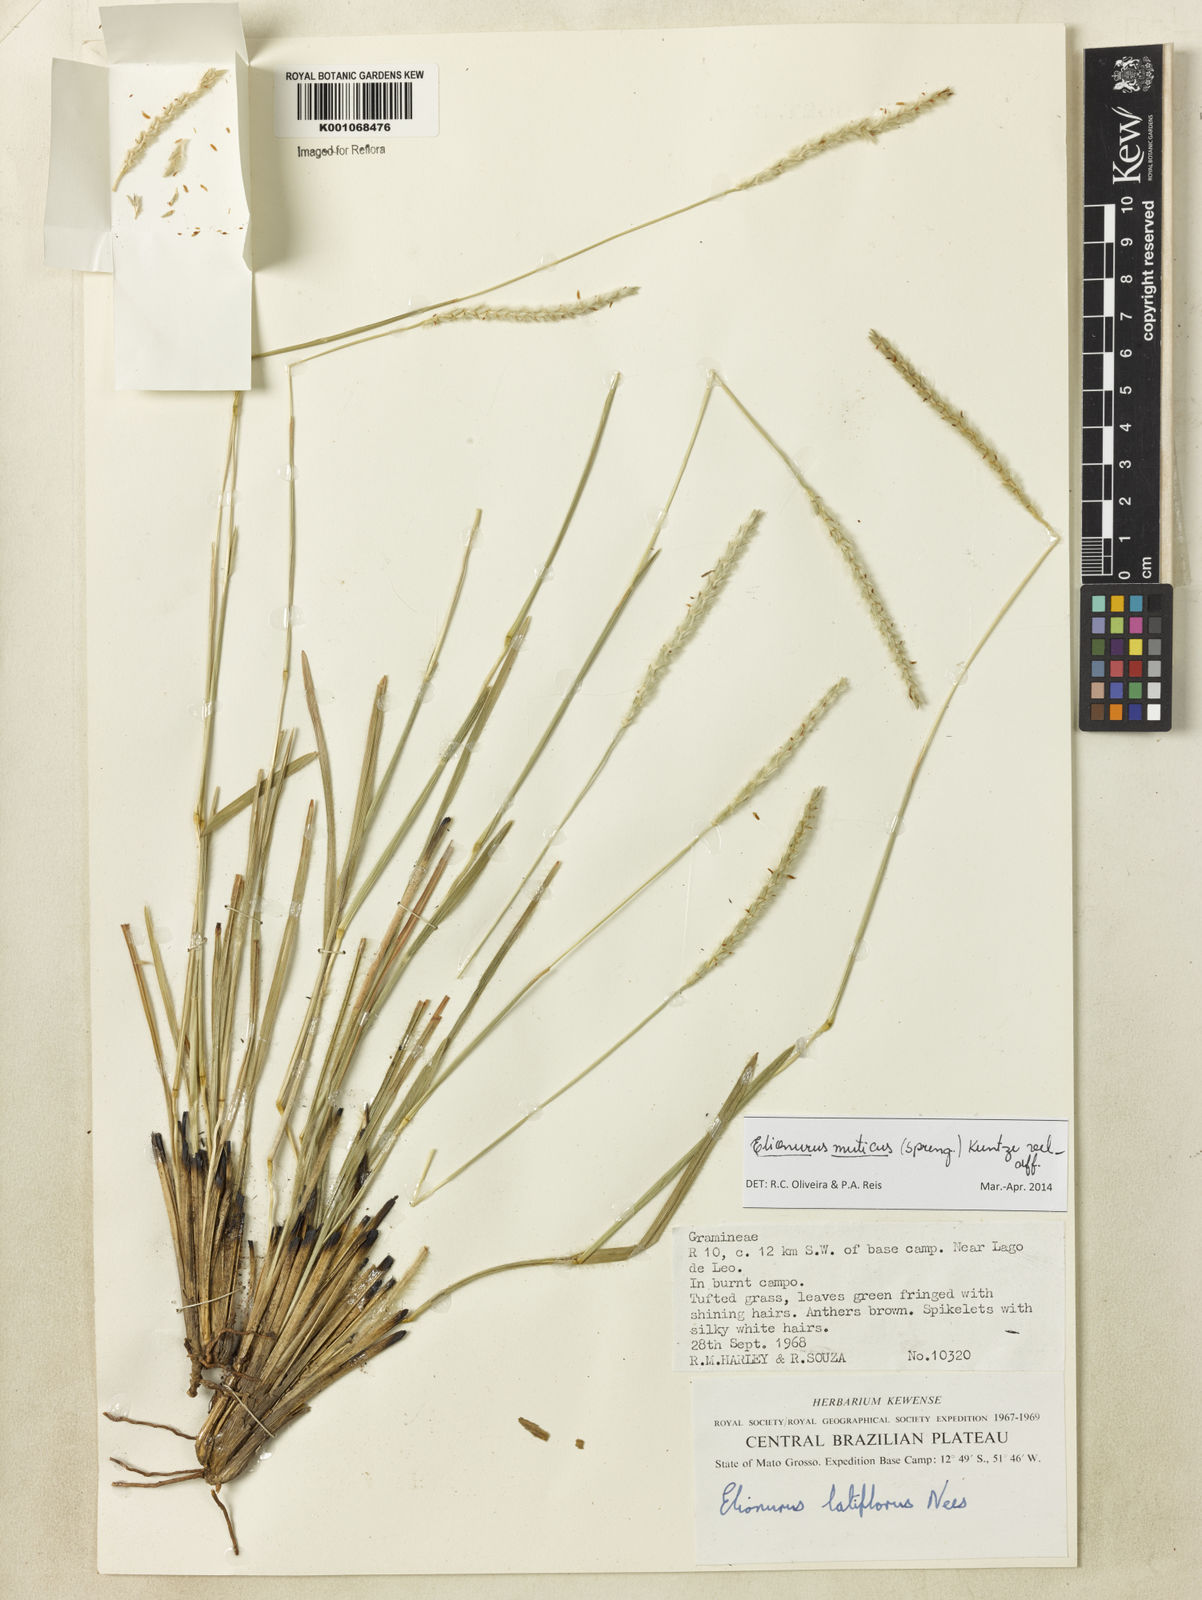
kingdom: Plantae
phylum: Tracheophyta
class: Liliopsida
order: Poales
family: Poaceae
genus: Elionurus
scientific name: Elionurus muticus
